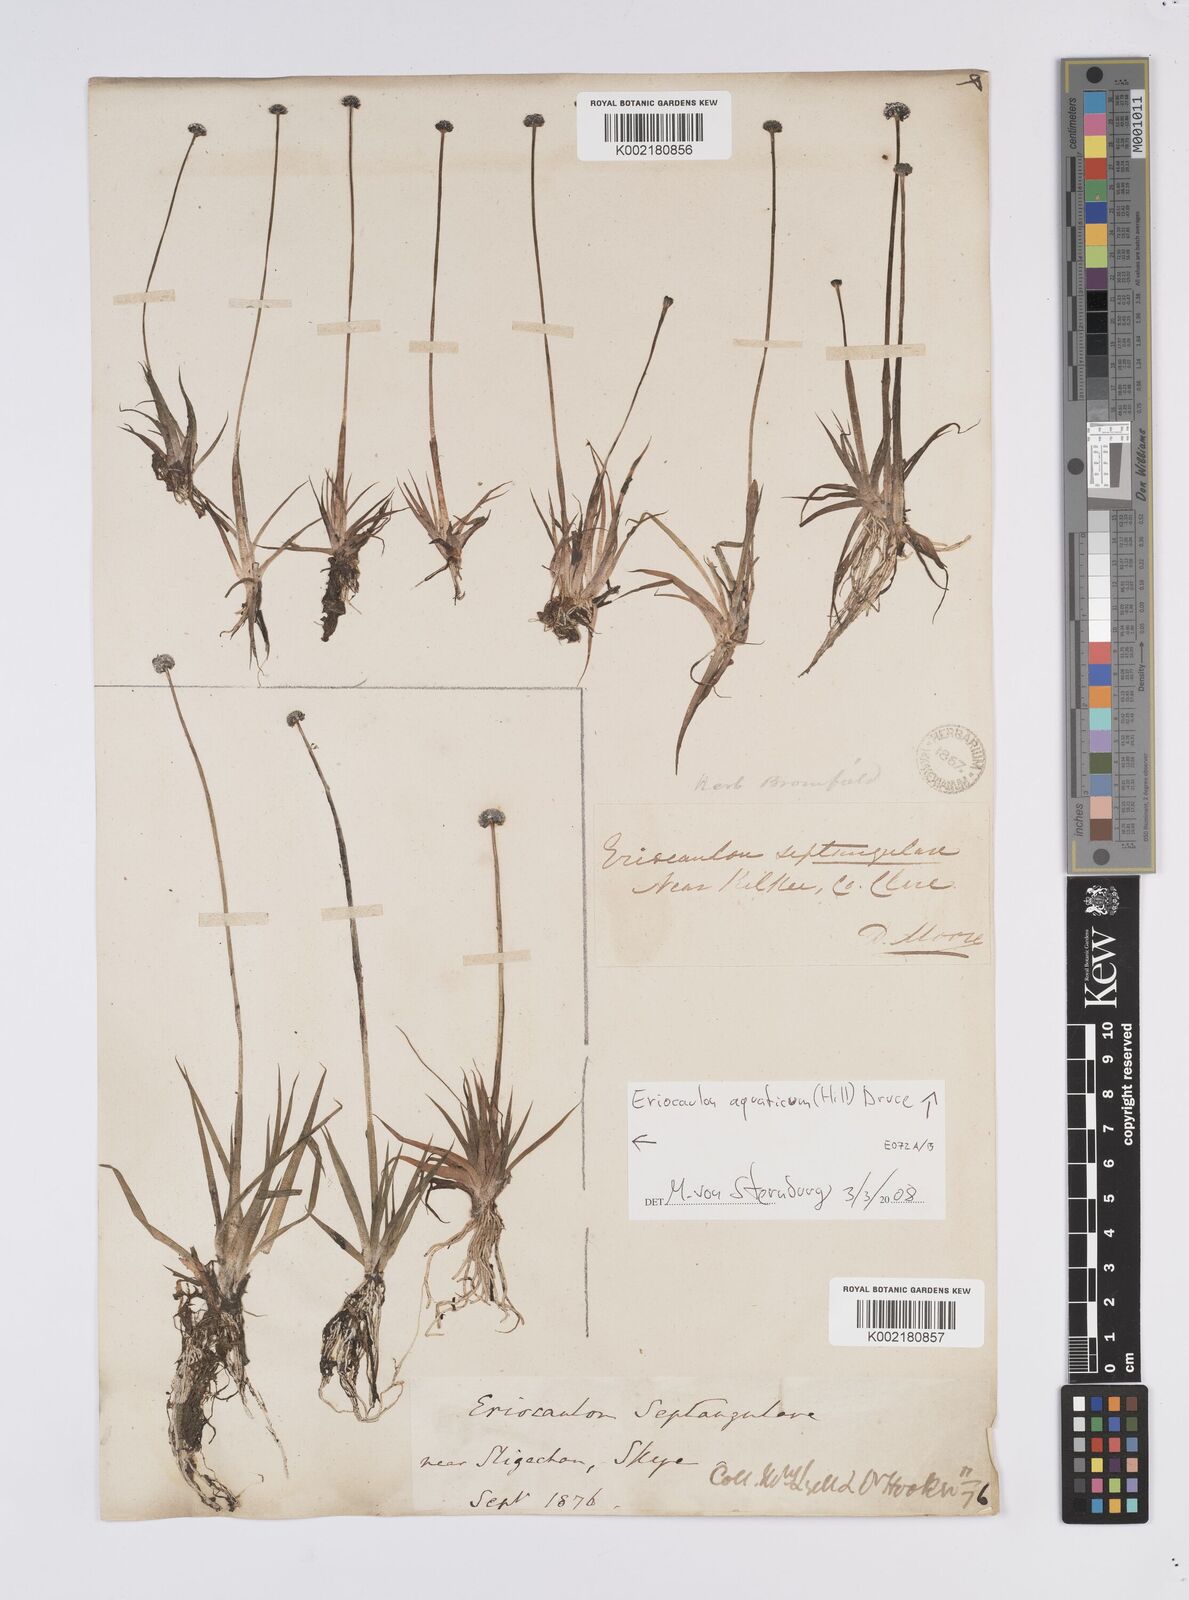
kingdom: Plantae
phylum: Tracheophyta
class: Liliopsida
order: Poales
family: Eriocaulaceae
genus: Eriocaulon
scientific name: Eriocaulon aquaticum
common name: Pipewort
